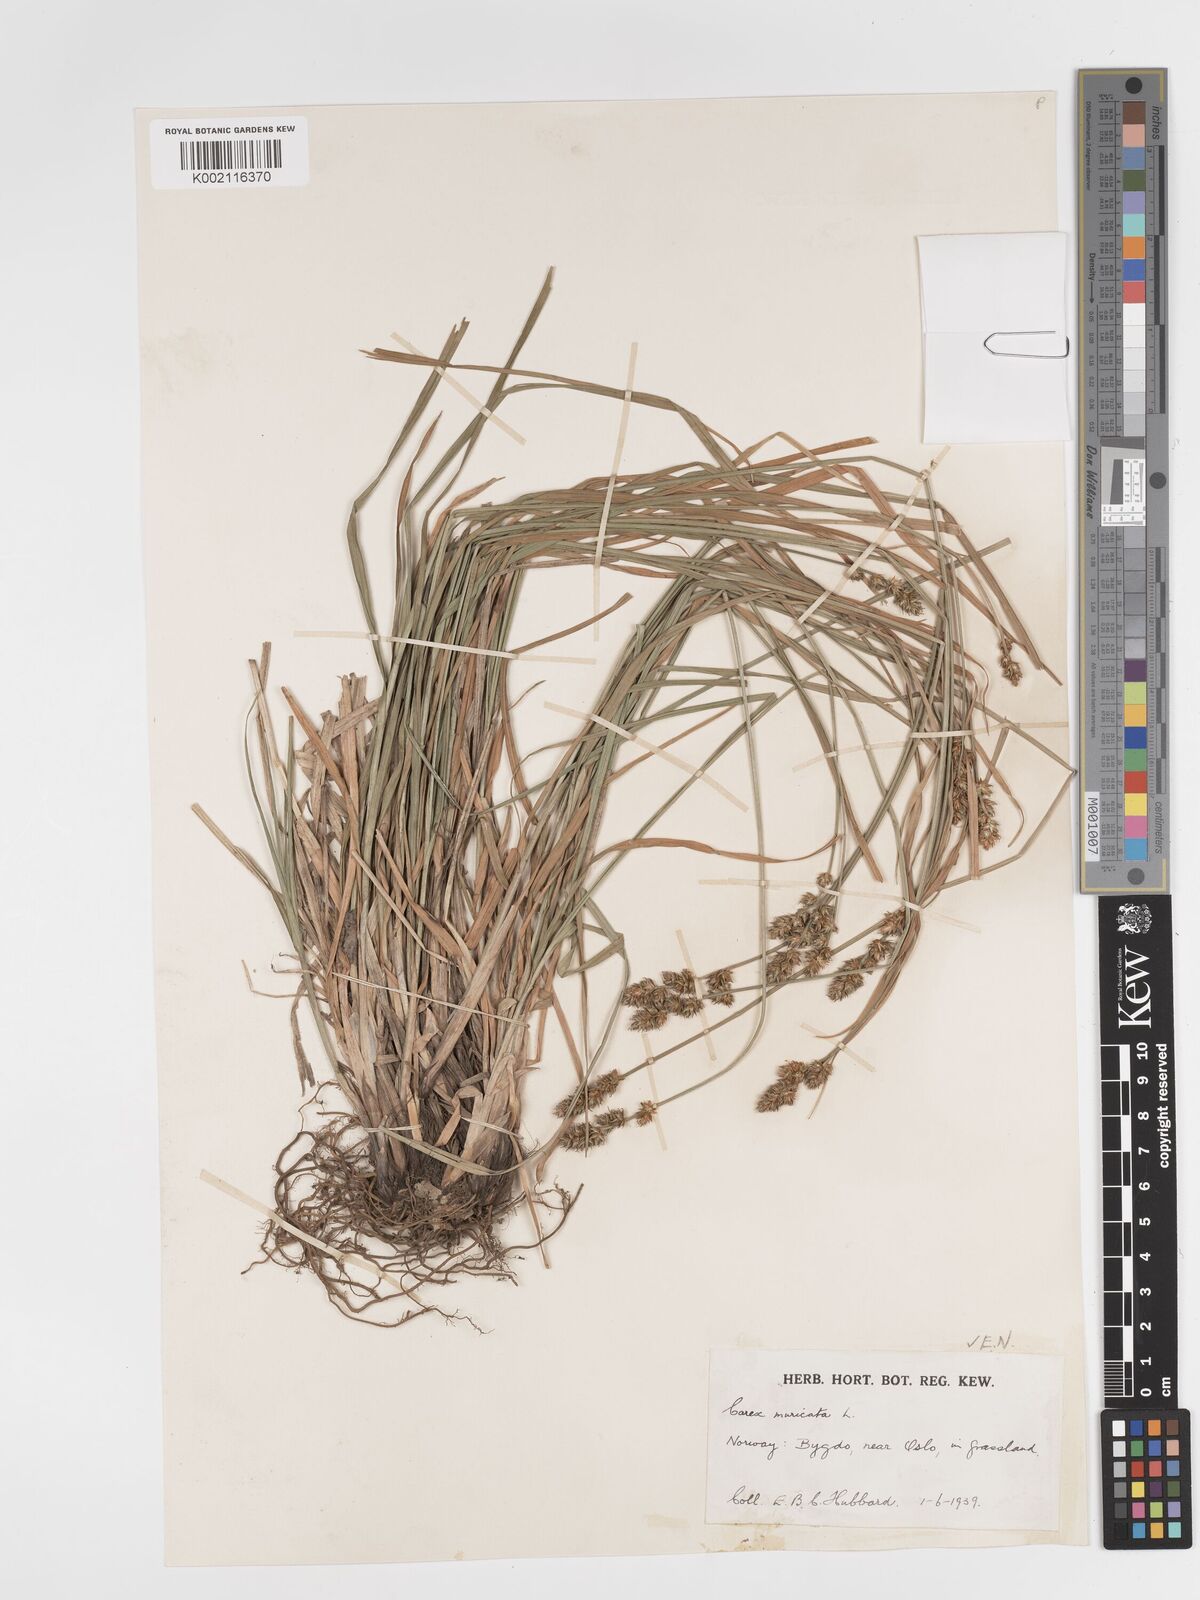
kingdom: Plantae
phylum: Tracheophyta
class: Liliopsida
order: Poales
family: Cyperaceae
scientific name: Cyperaceae
